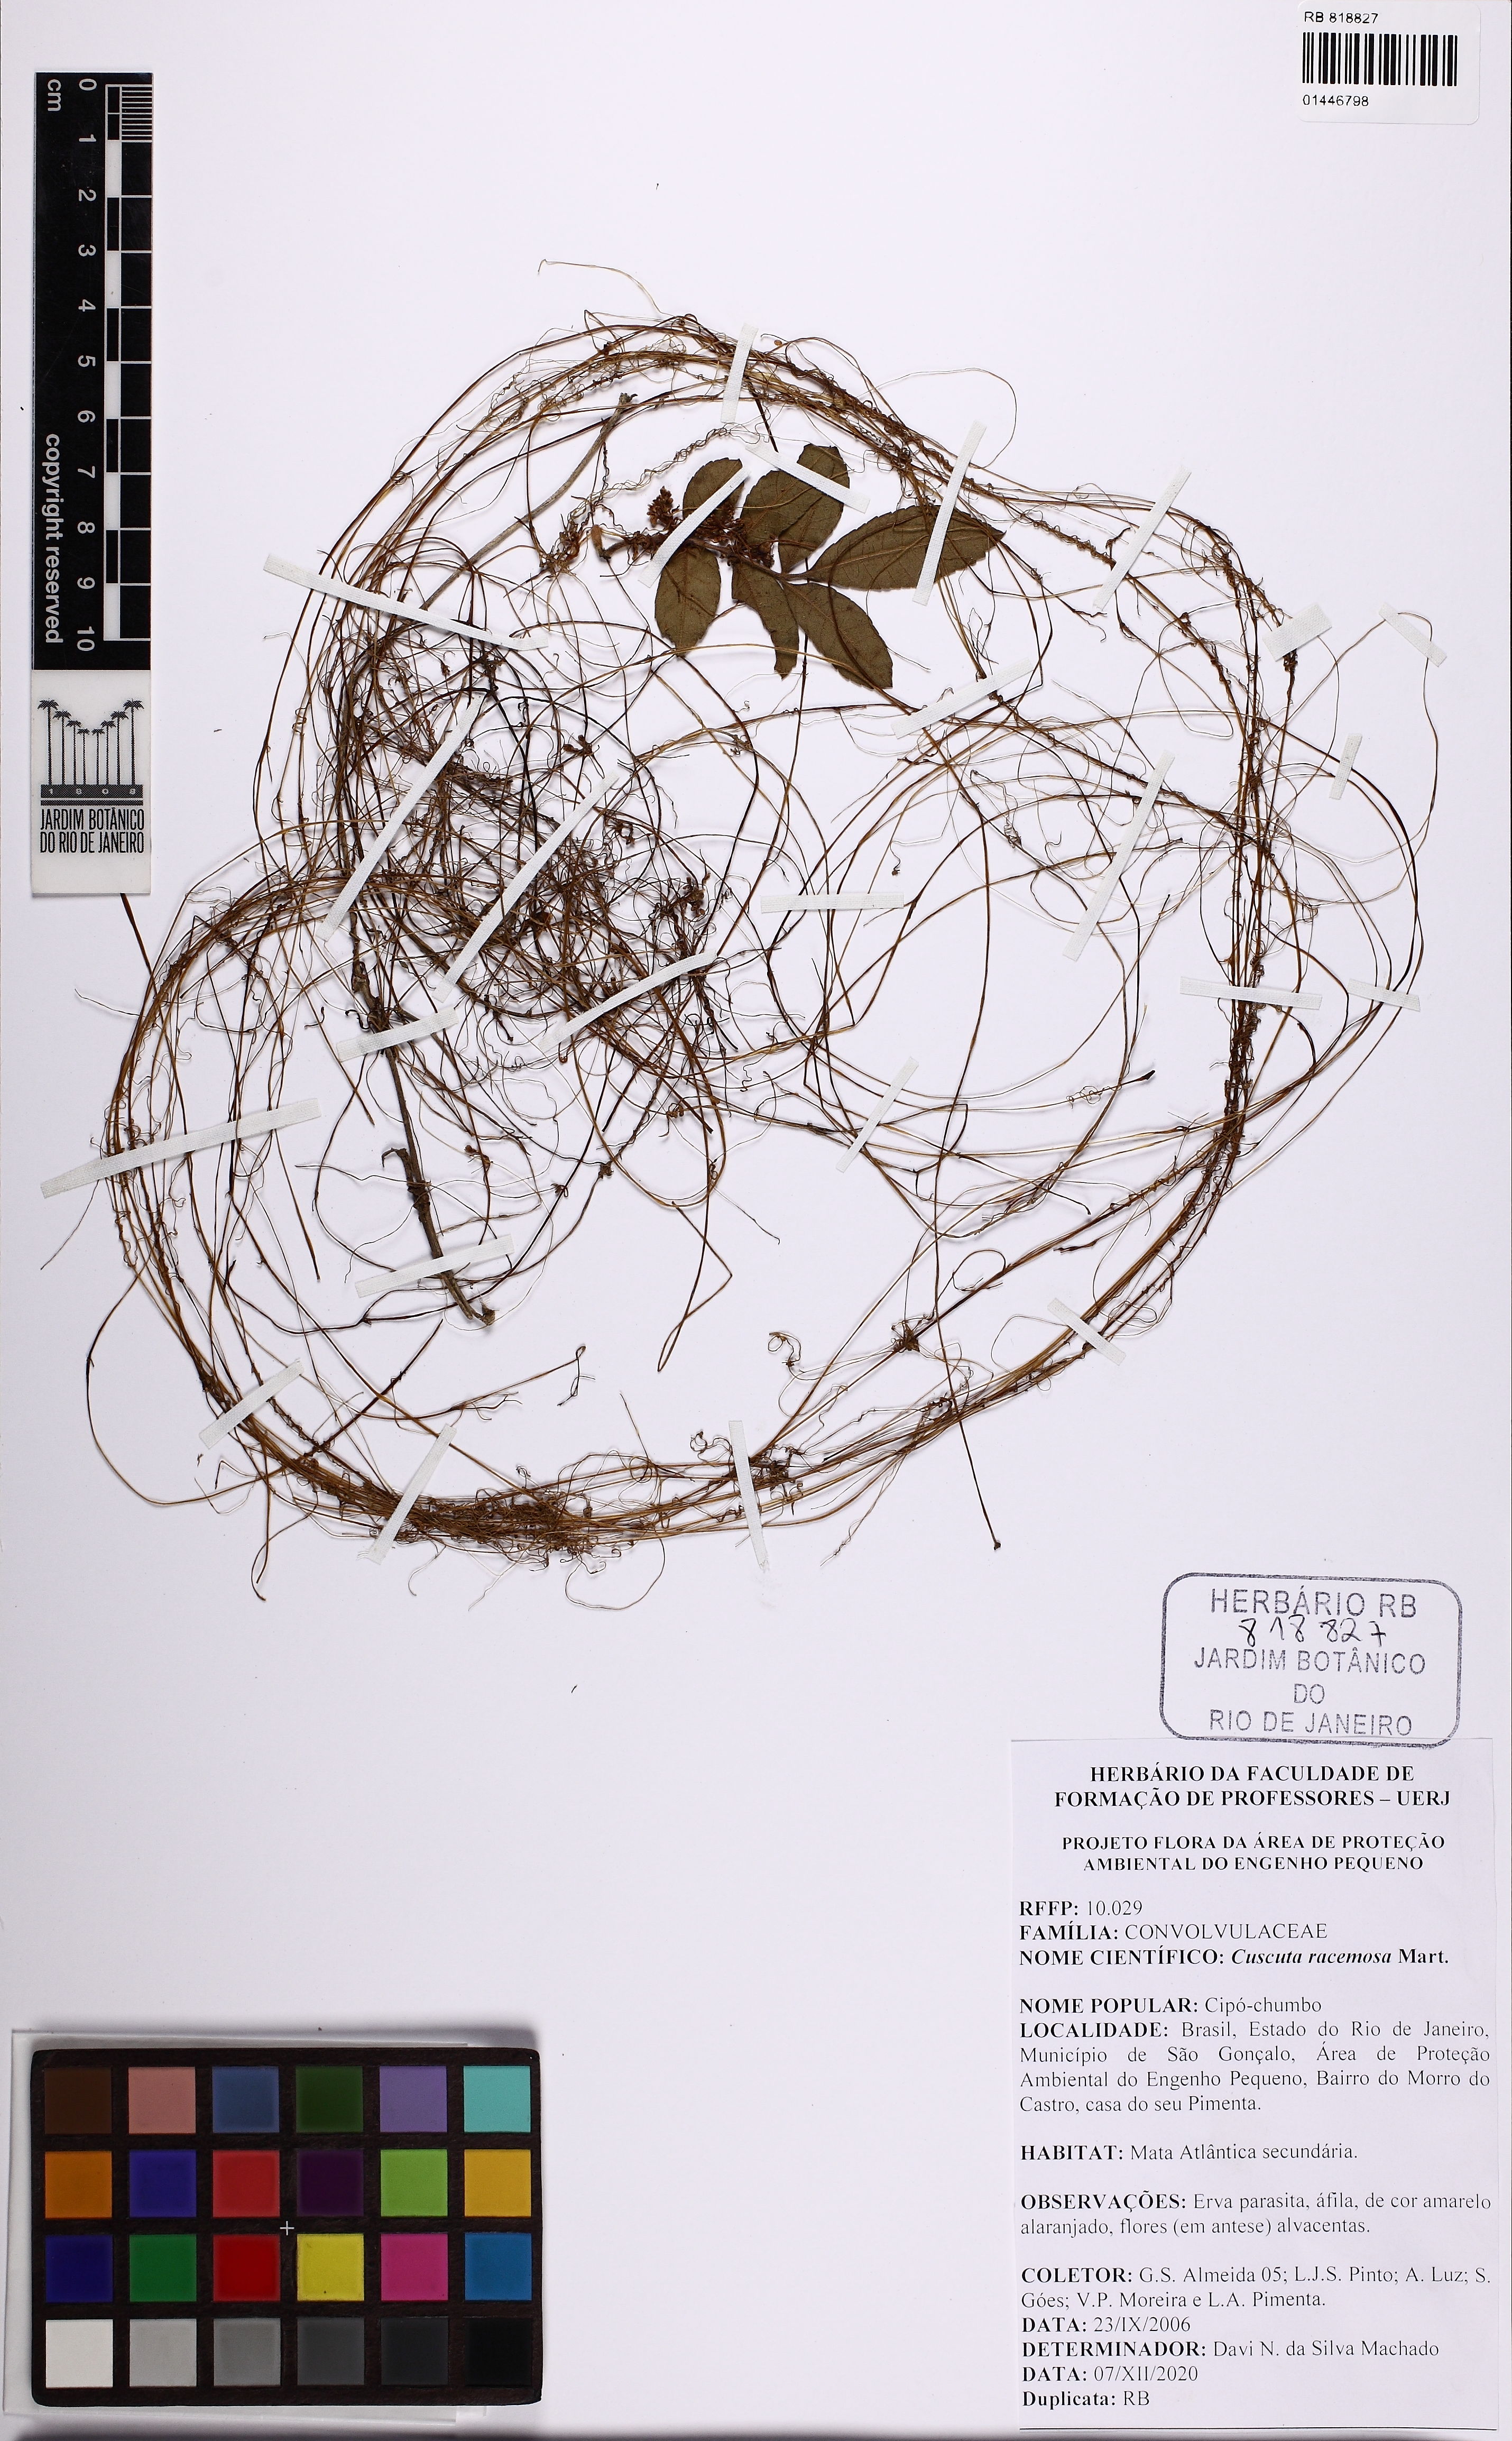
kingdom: Plantae
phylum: Tracheophyta
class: Magnoliopsida
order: Solanales
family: Convolvulaceae
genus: Cuscuta
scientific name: Cuscuta racemosa
